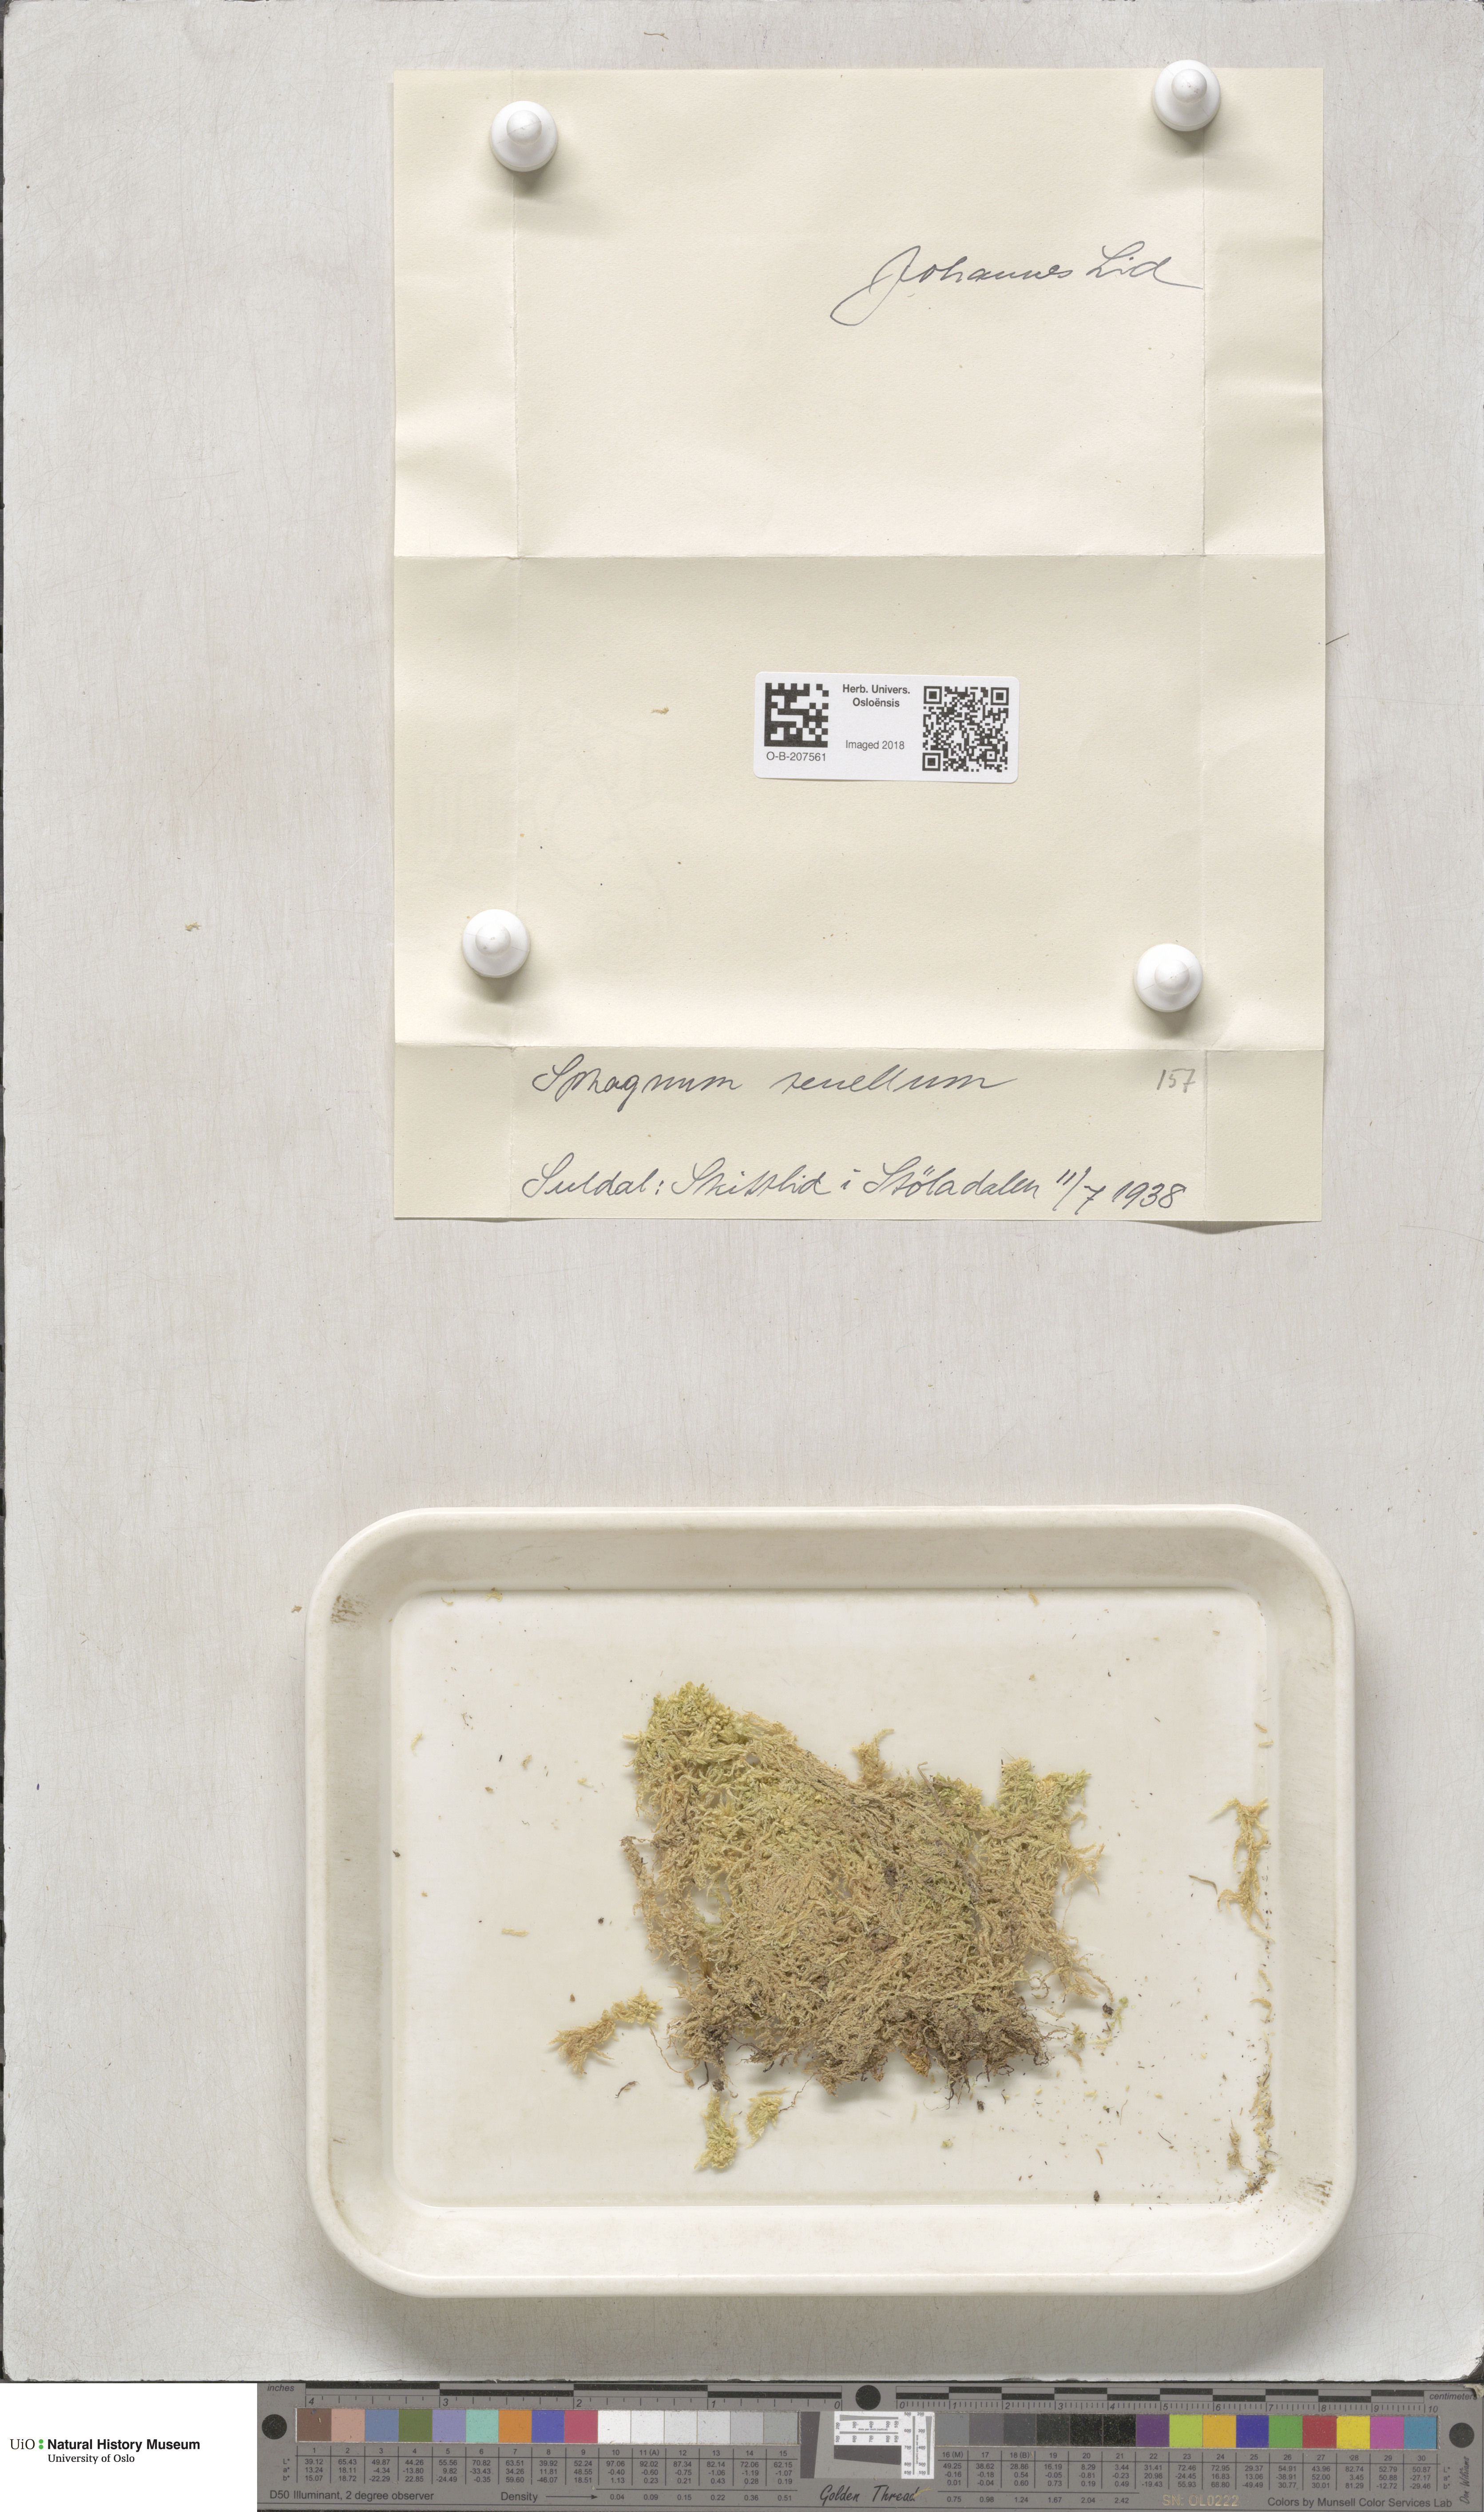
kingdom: Plantae
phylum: Bryophyta
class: Sphagnopsida
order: Sphagnales
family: Sphagnaceae
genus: Sphagnum
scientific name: Sphagnum tenellum
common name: Soft bog-moss
